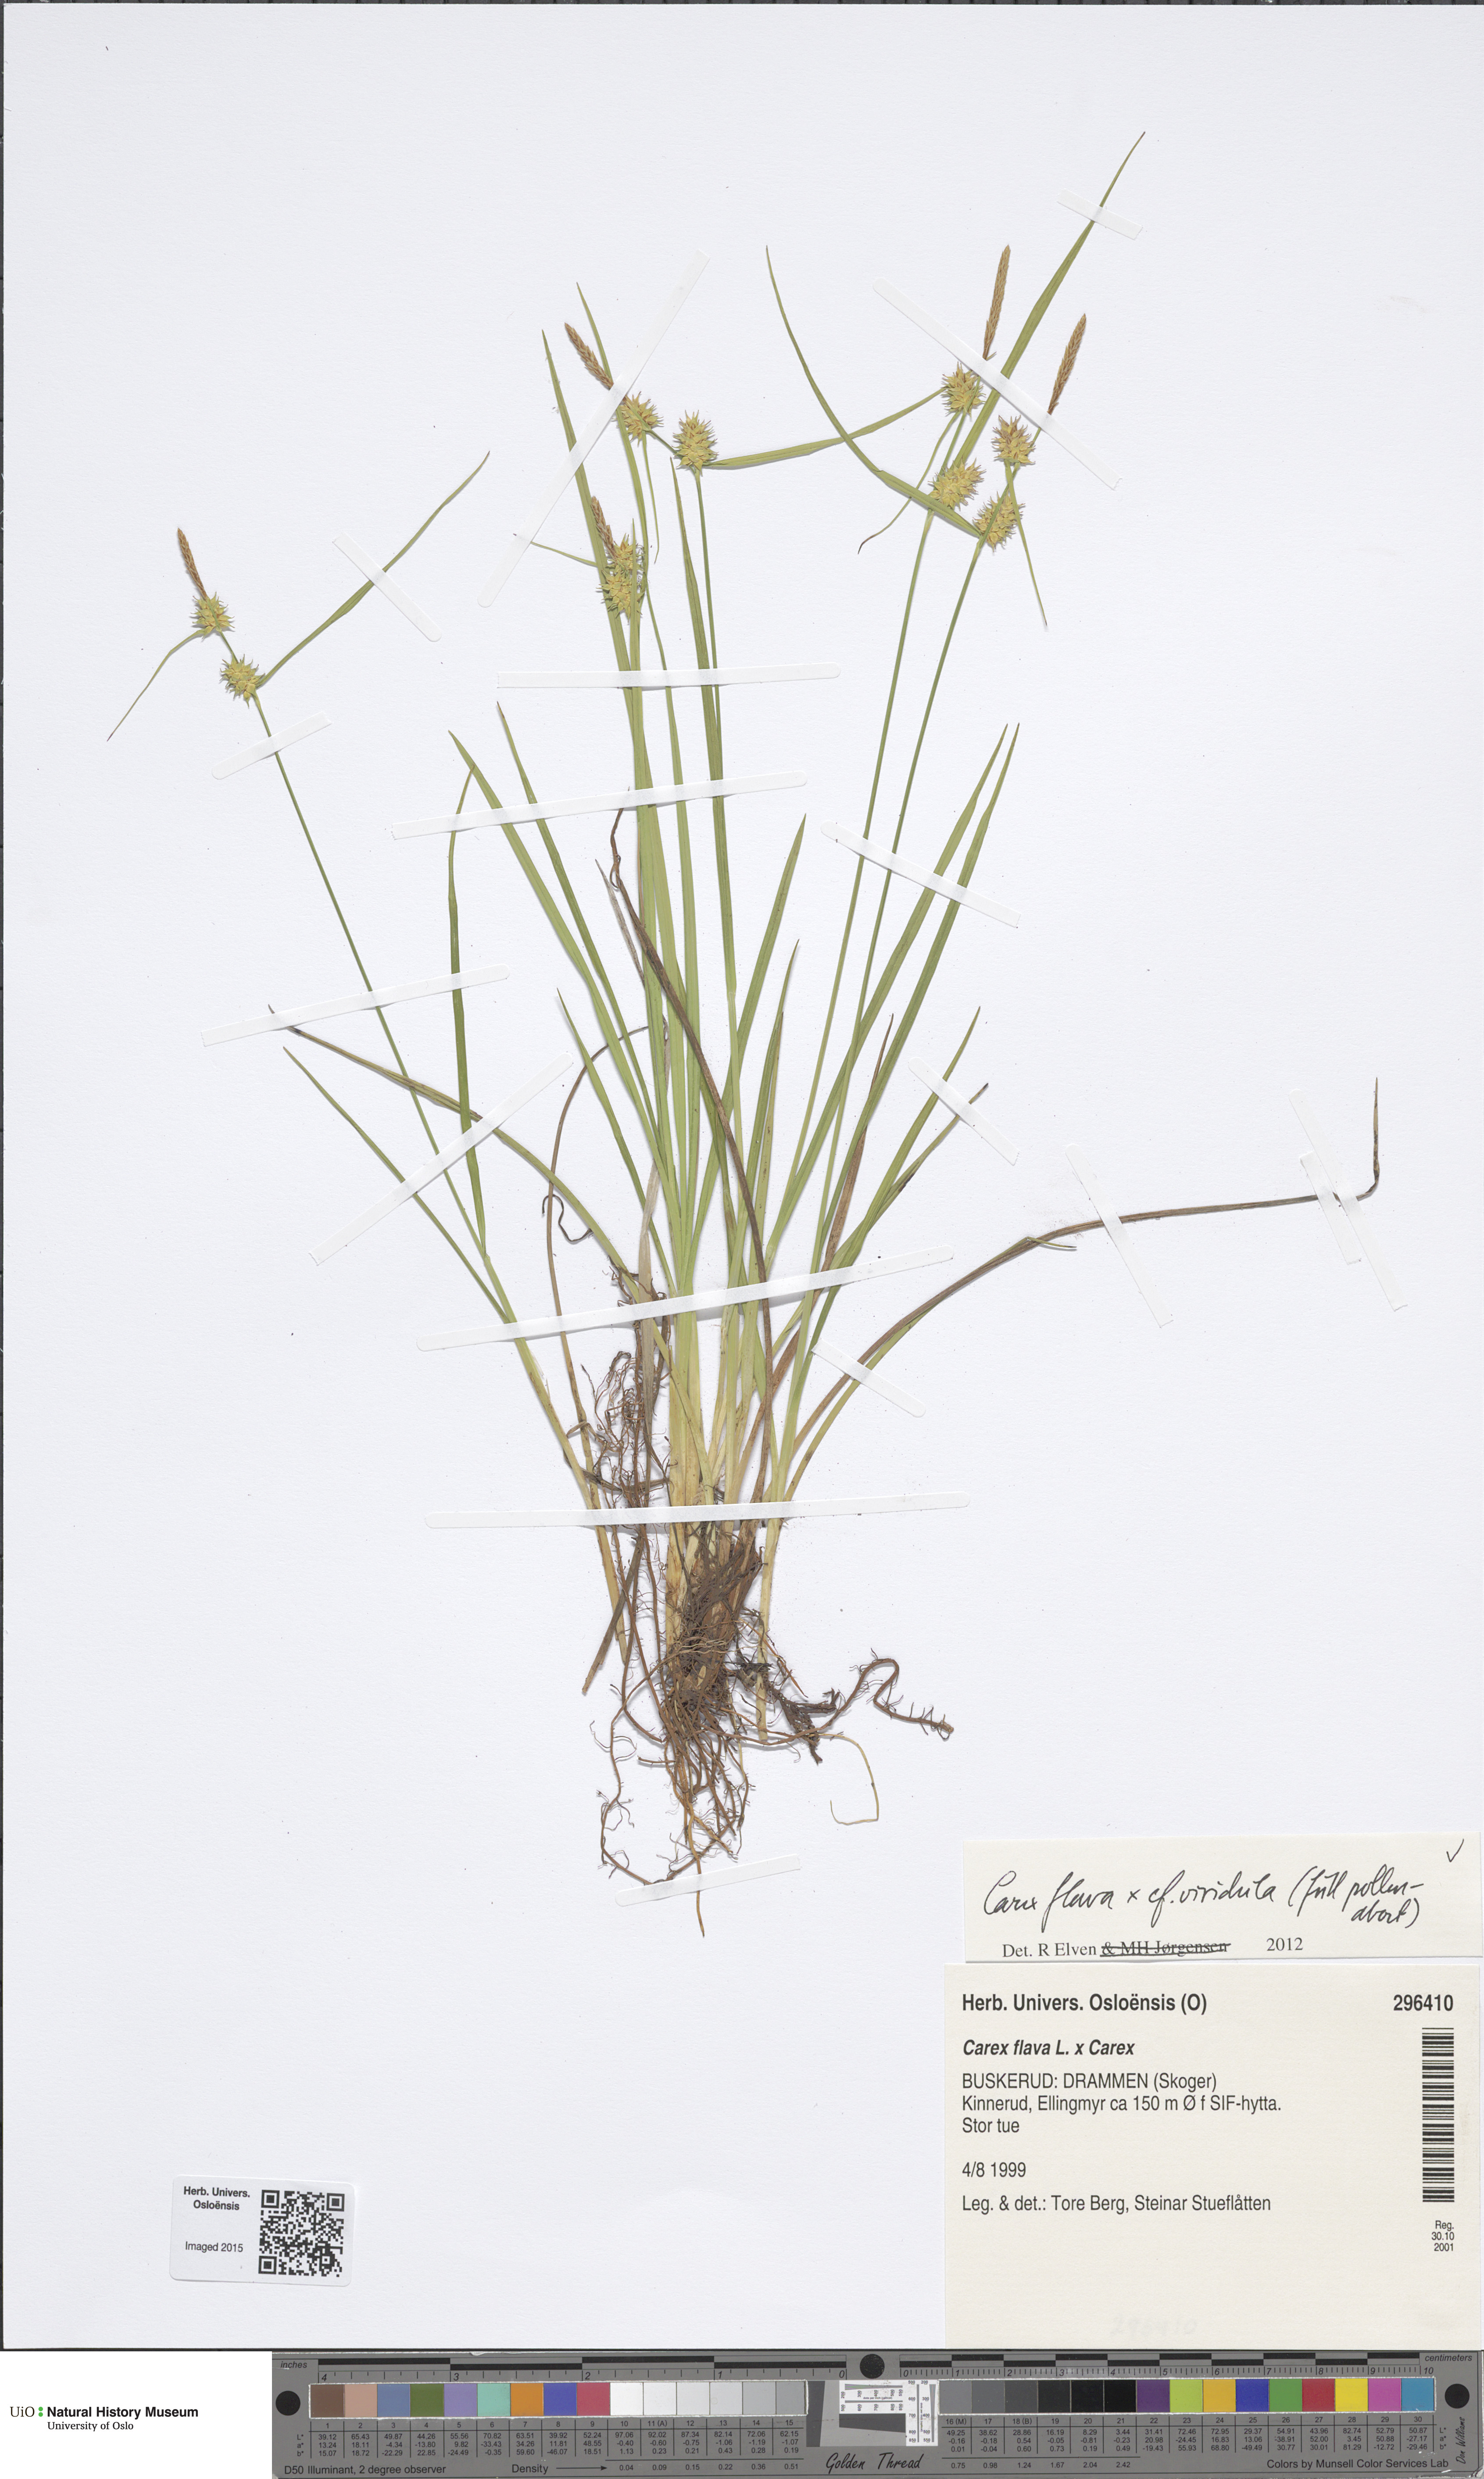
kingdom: Plantae
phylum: Tracheophyta
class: Liliopsida
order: Poales
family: Cyperaceae
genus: Carex
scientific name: Carex
